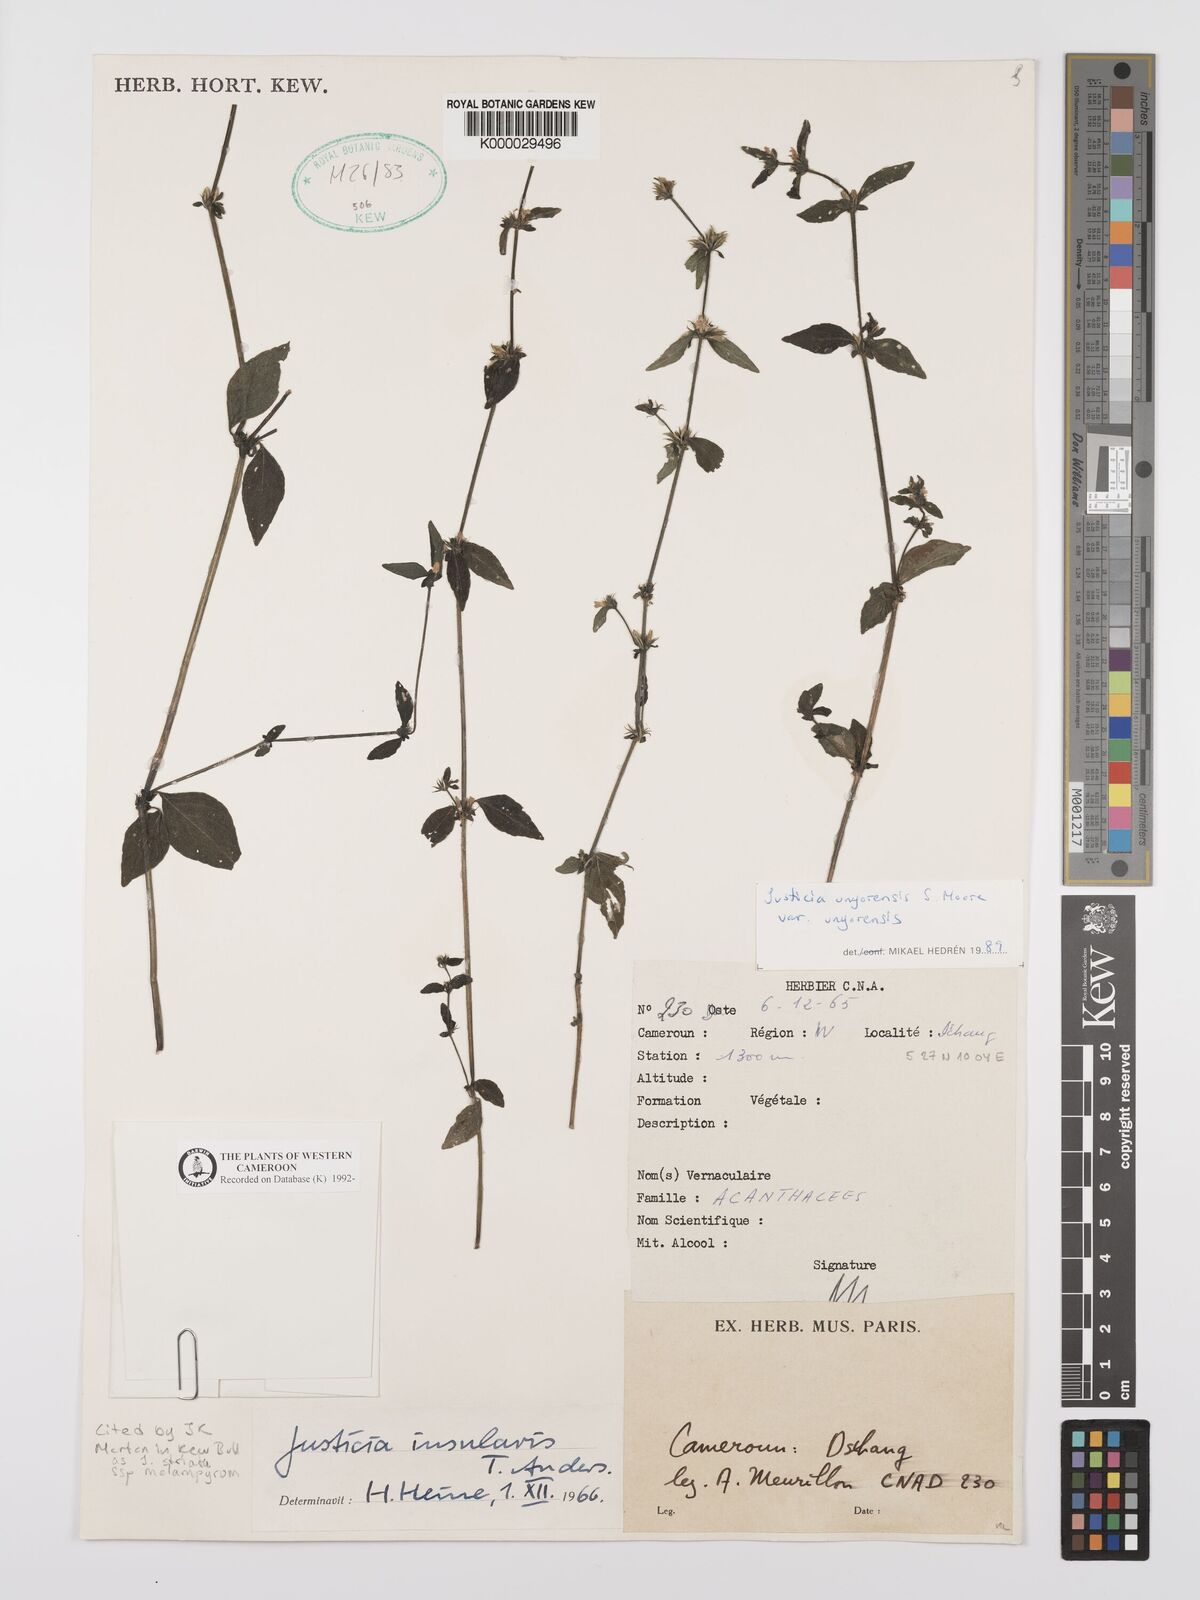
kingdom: Plantae
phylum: Tracheophyta
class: Magnoliopsida
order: Lamiales
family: Acanthaceae
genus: Justicia
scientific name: Justicia unyorensis
